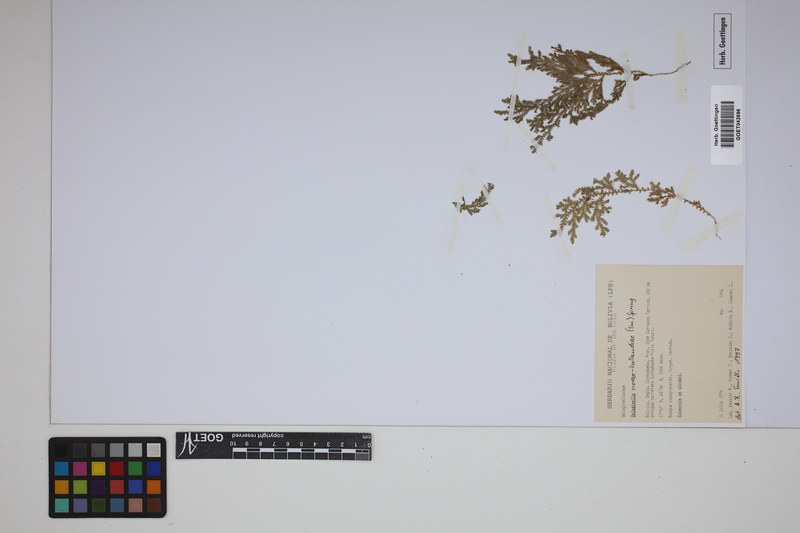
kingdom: Plantae
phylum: Tracheophyta
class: Lycopodiopsida
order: Selaginellales
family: Selaginellaceae
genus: Selaginella
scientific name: Selaginella novae-hollandiae
